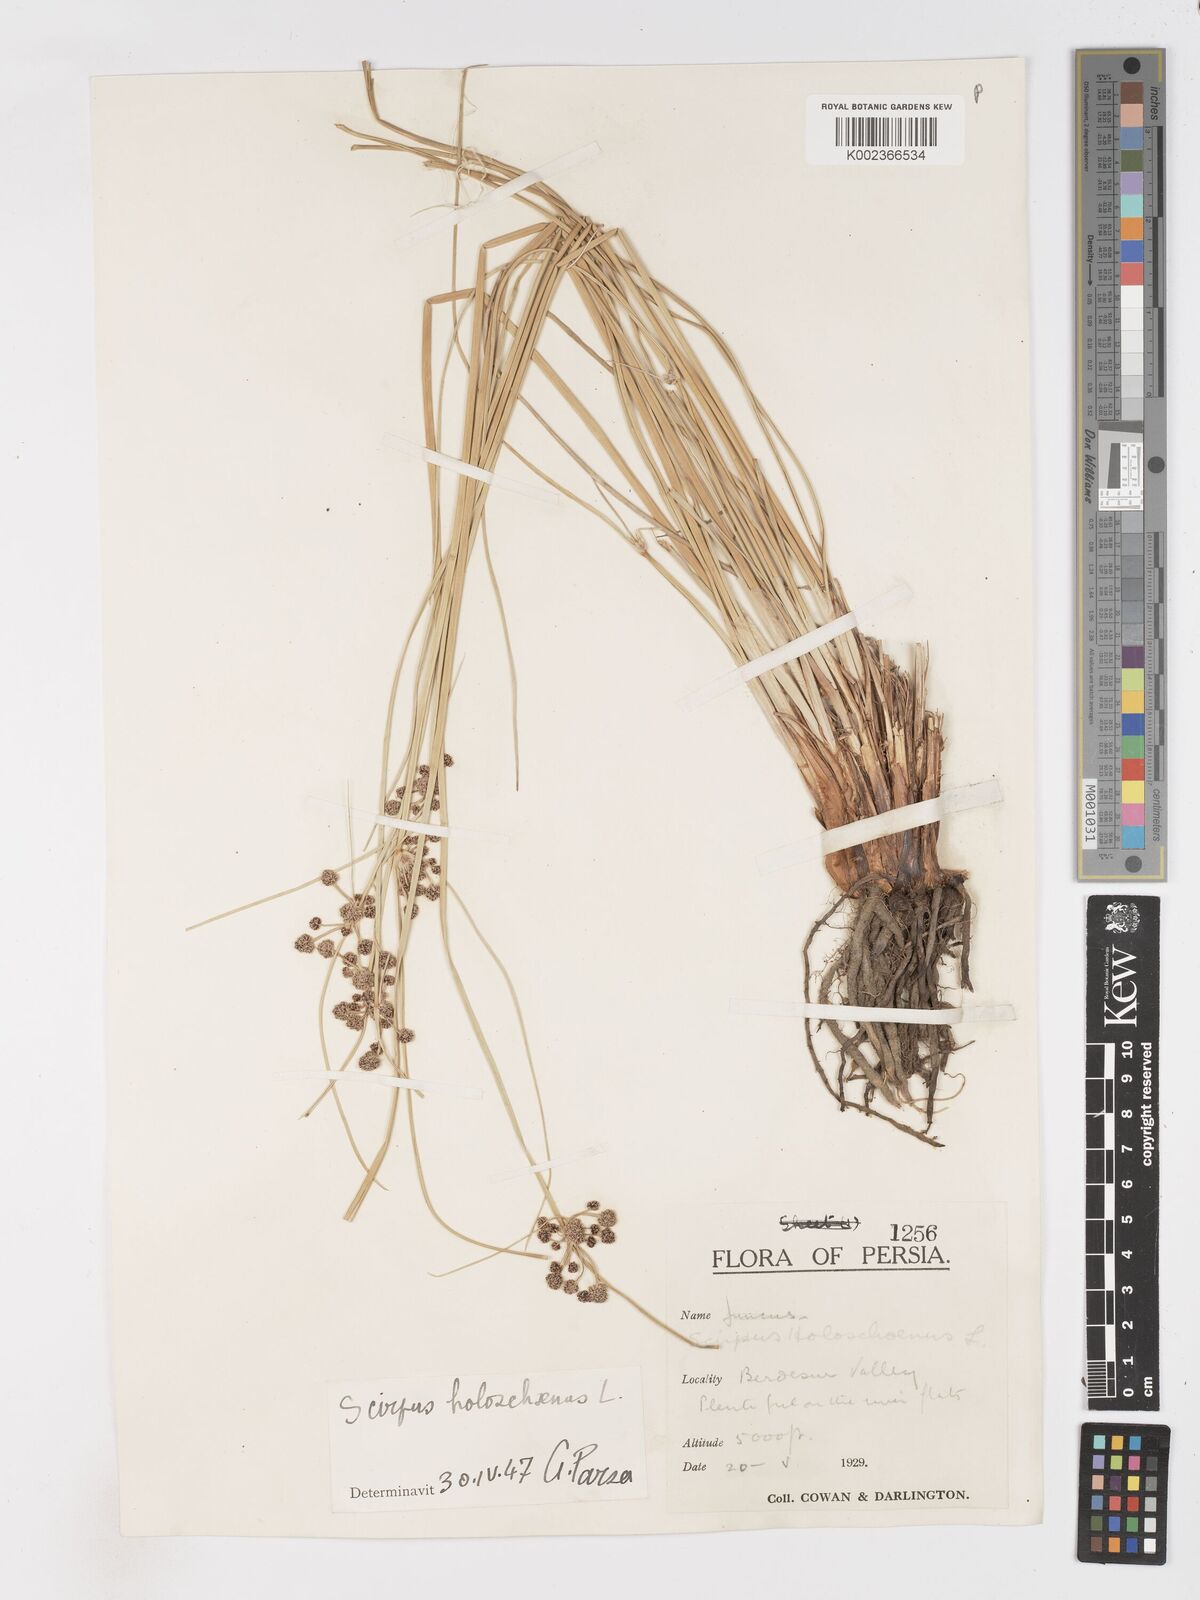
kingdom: Plantae
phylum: Tracheophyta
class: Liliopsida
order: Poales
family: Cyperaceae
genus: Scirpoides
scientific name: Scirpoides holoschoenus
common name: Round-headed club-rush
